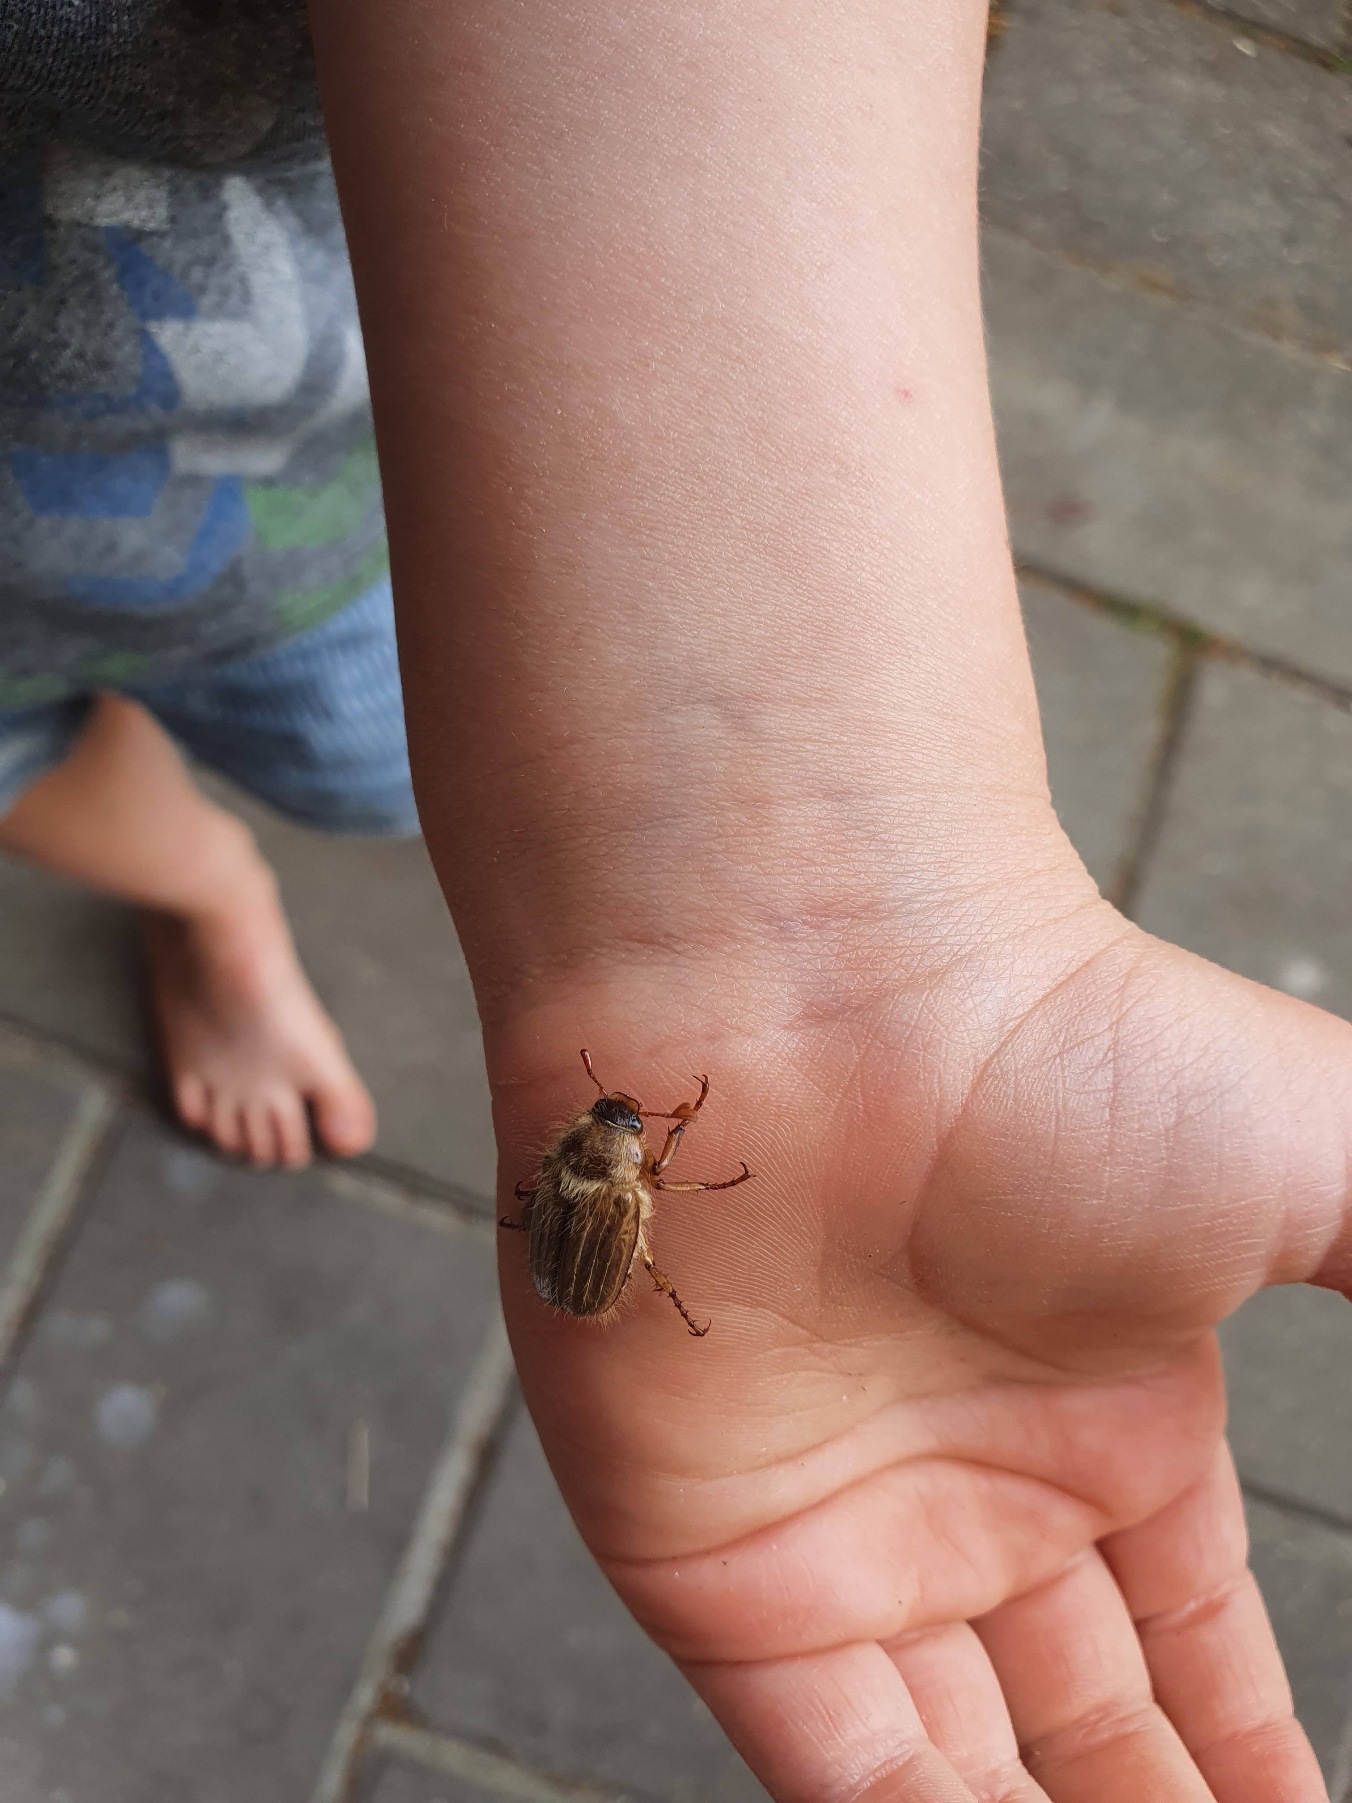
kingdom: Animalia
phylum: Arthropoda
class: Insecta
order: Coleoptera
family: Scarabaeidae
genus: Amphimallon
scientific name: Amphimallon solstitiale
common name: Sankthansoldenborre
